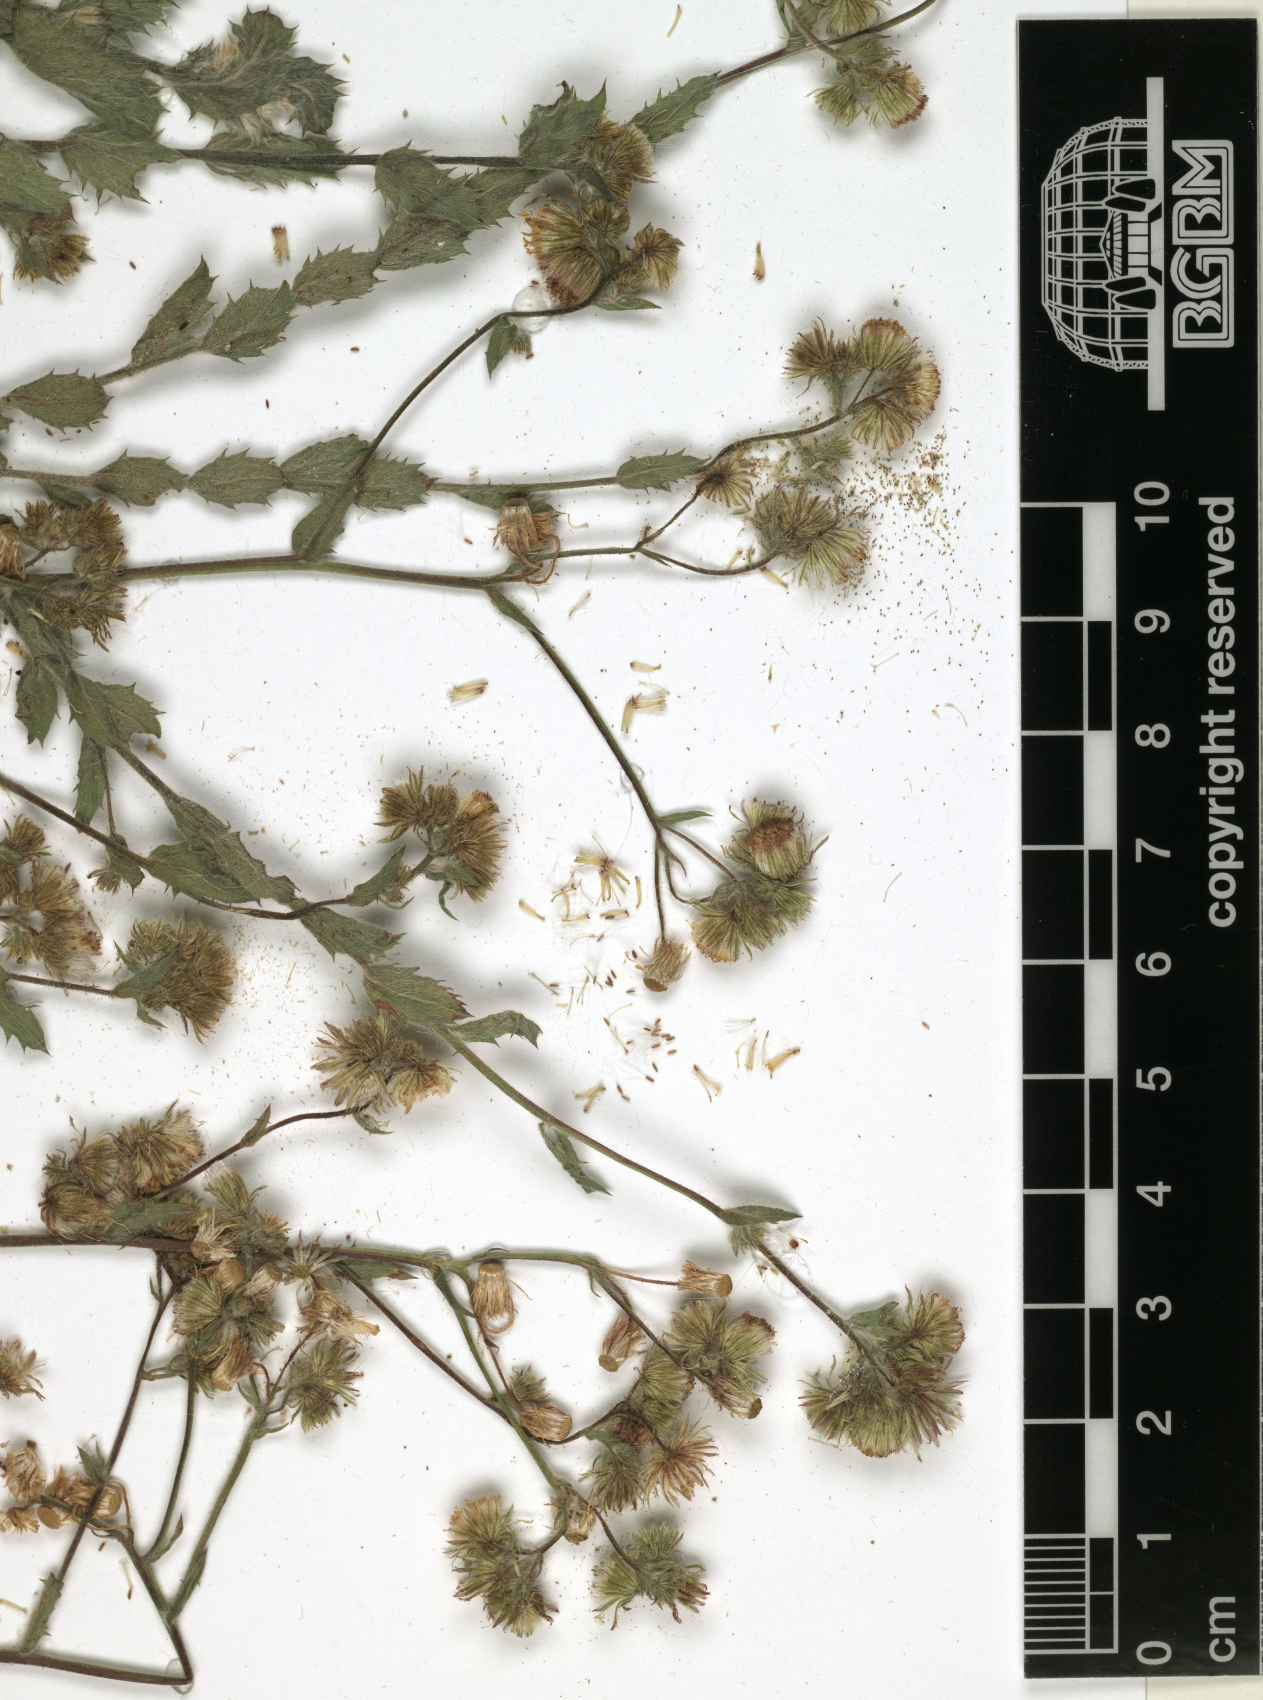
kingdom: Plantae
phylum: Tracheophyta
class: Magnoliopsida
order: Asterales
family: Asteraceae
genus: Blumea
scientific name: Blumea lacera
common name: Malay blumea
